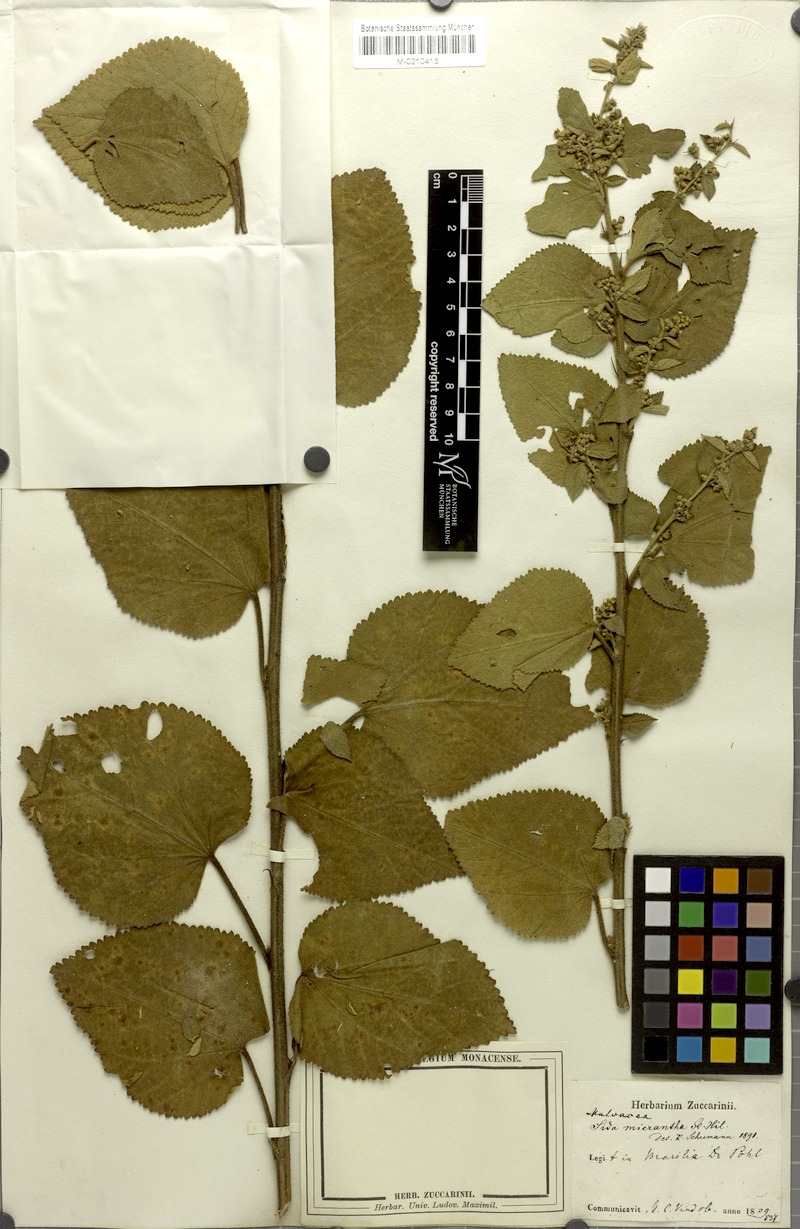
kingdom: Plantae
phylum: Tracheophyta
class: Magnoliopsida
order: Malvales
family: Malvaceae
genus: Sidastrum
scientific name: Sidastrum micranthum
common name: Dainty sandmallow
